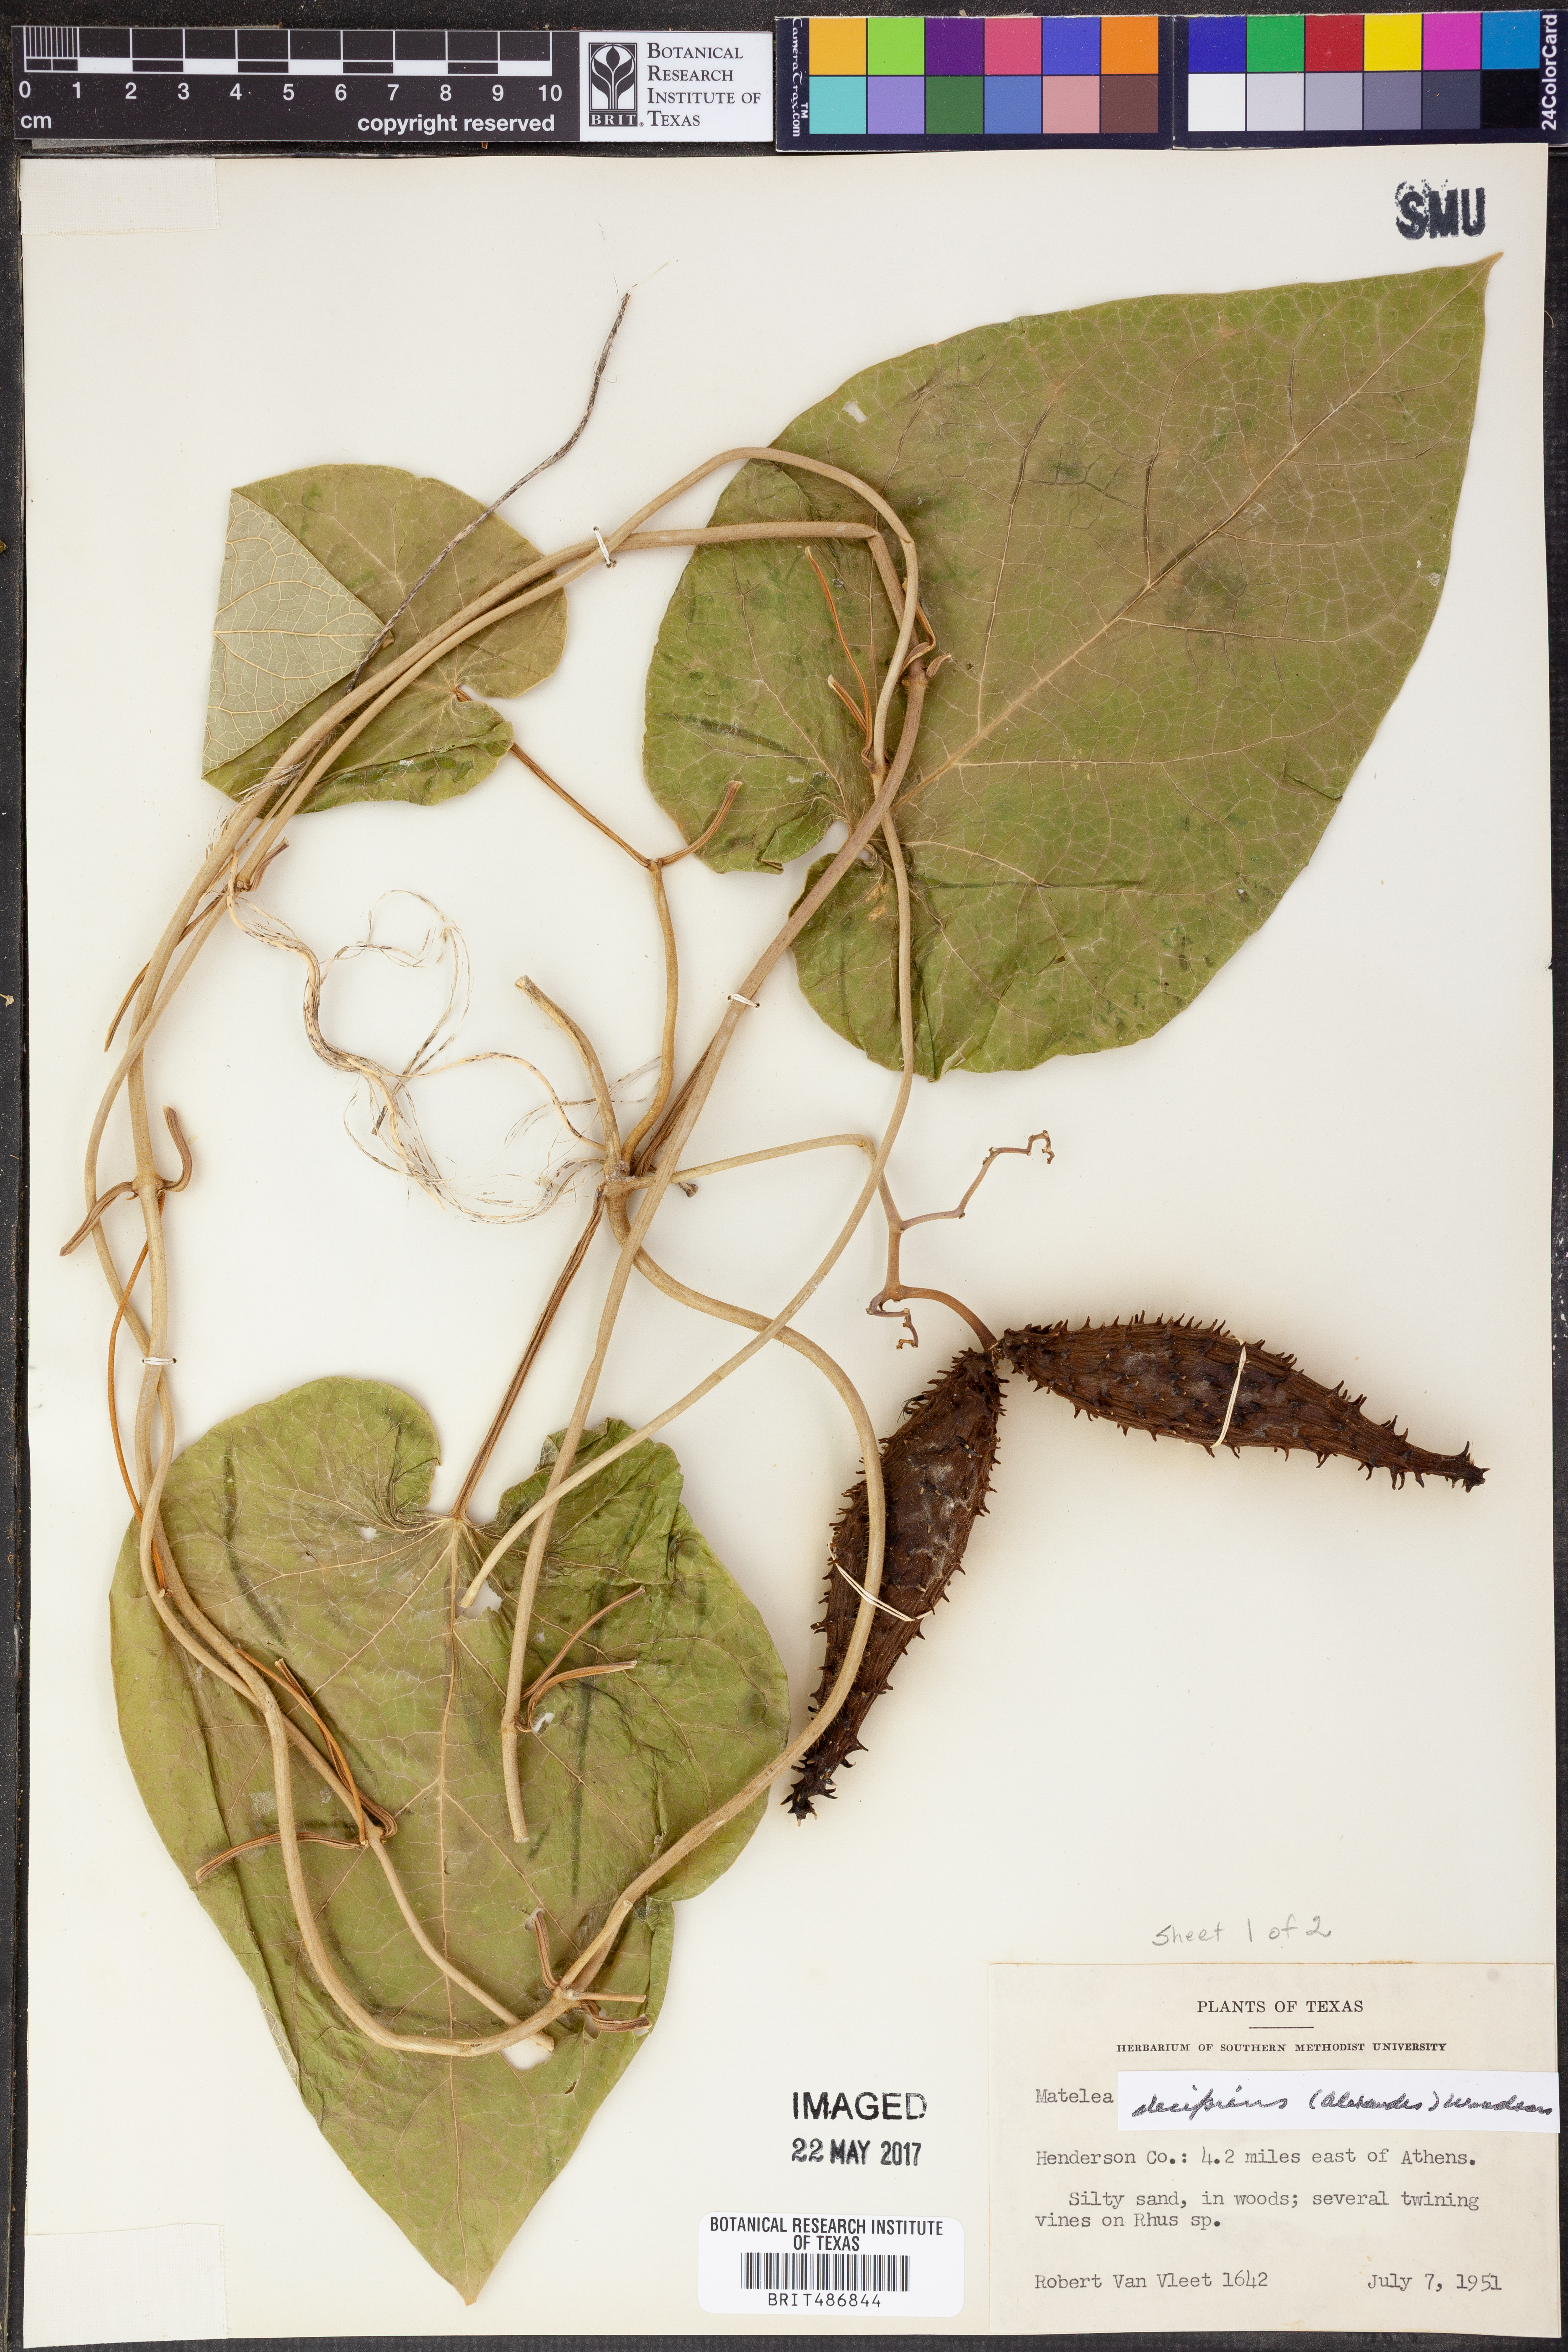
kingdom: Plantae
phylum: Tracheophyta
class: Magnoliopsida
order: Gentianales
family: Apocynaceae
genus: Matelea
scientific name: Matelea decipiens
